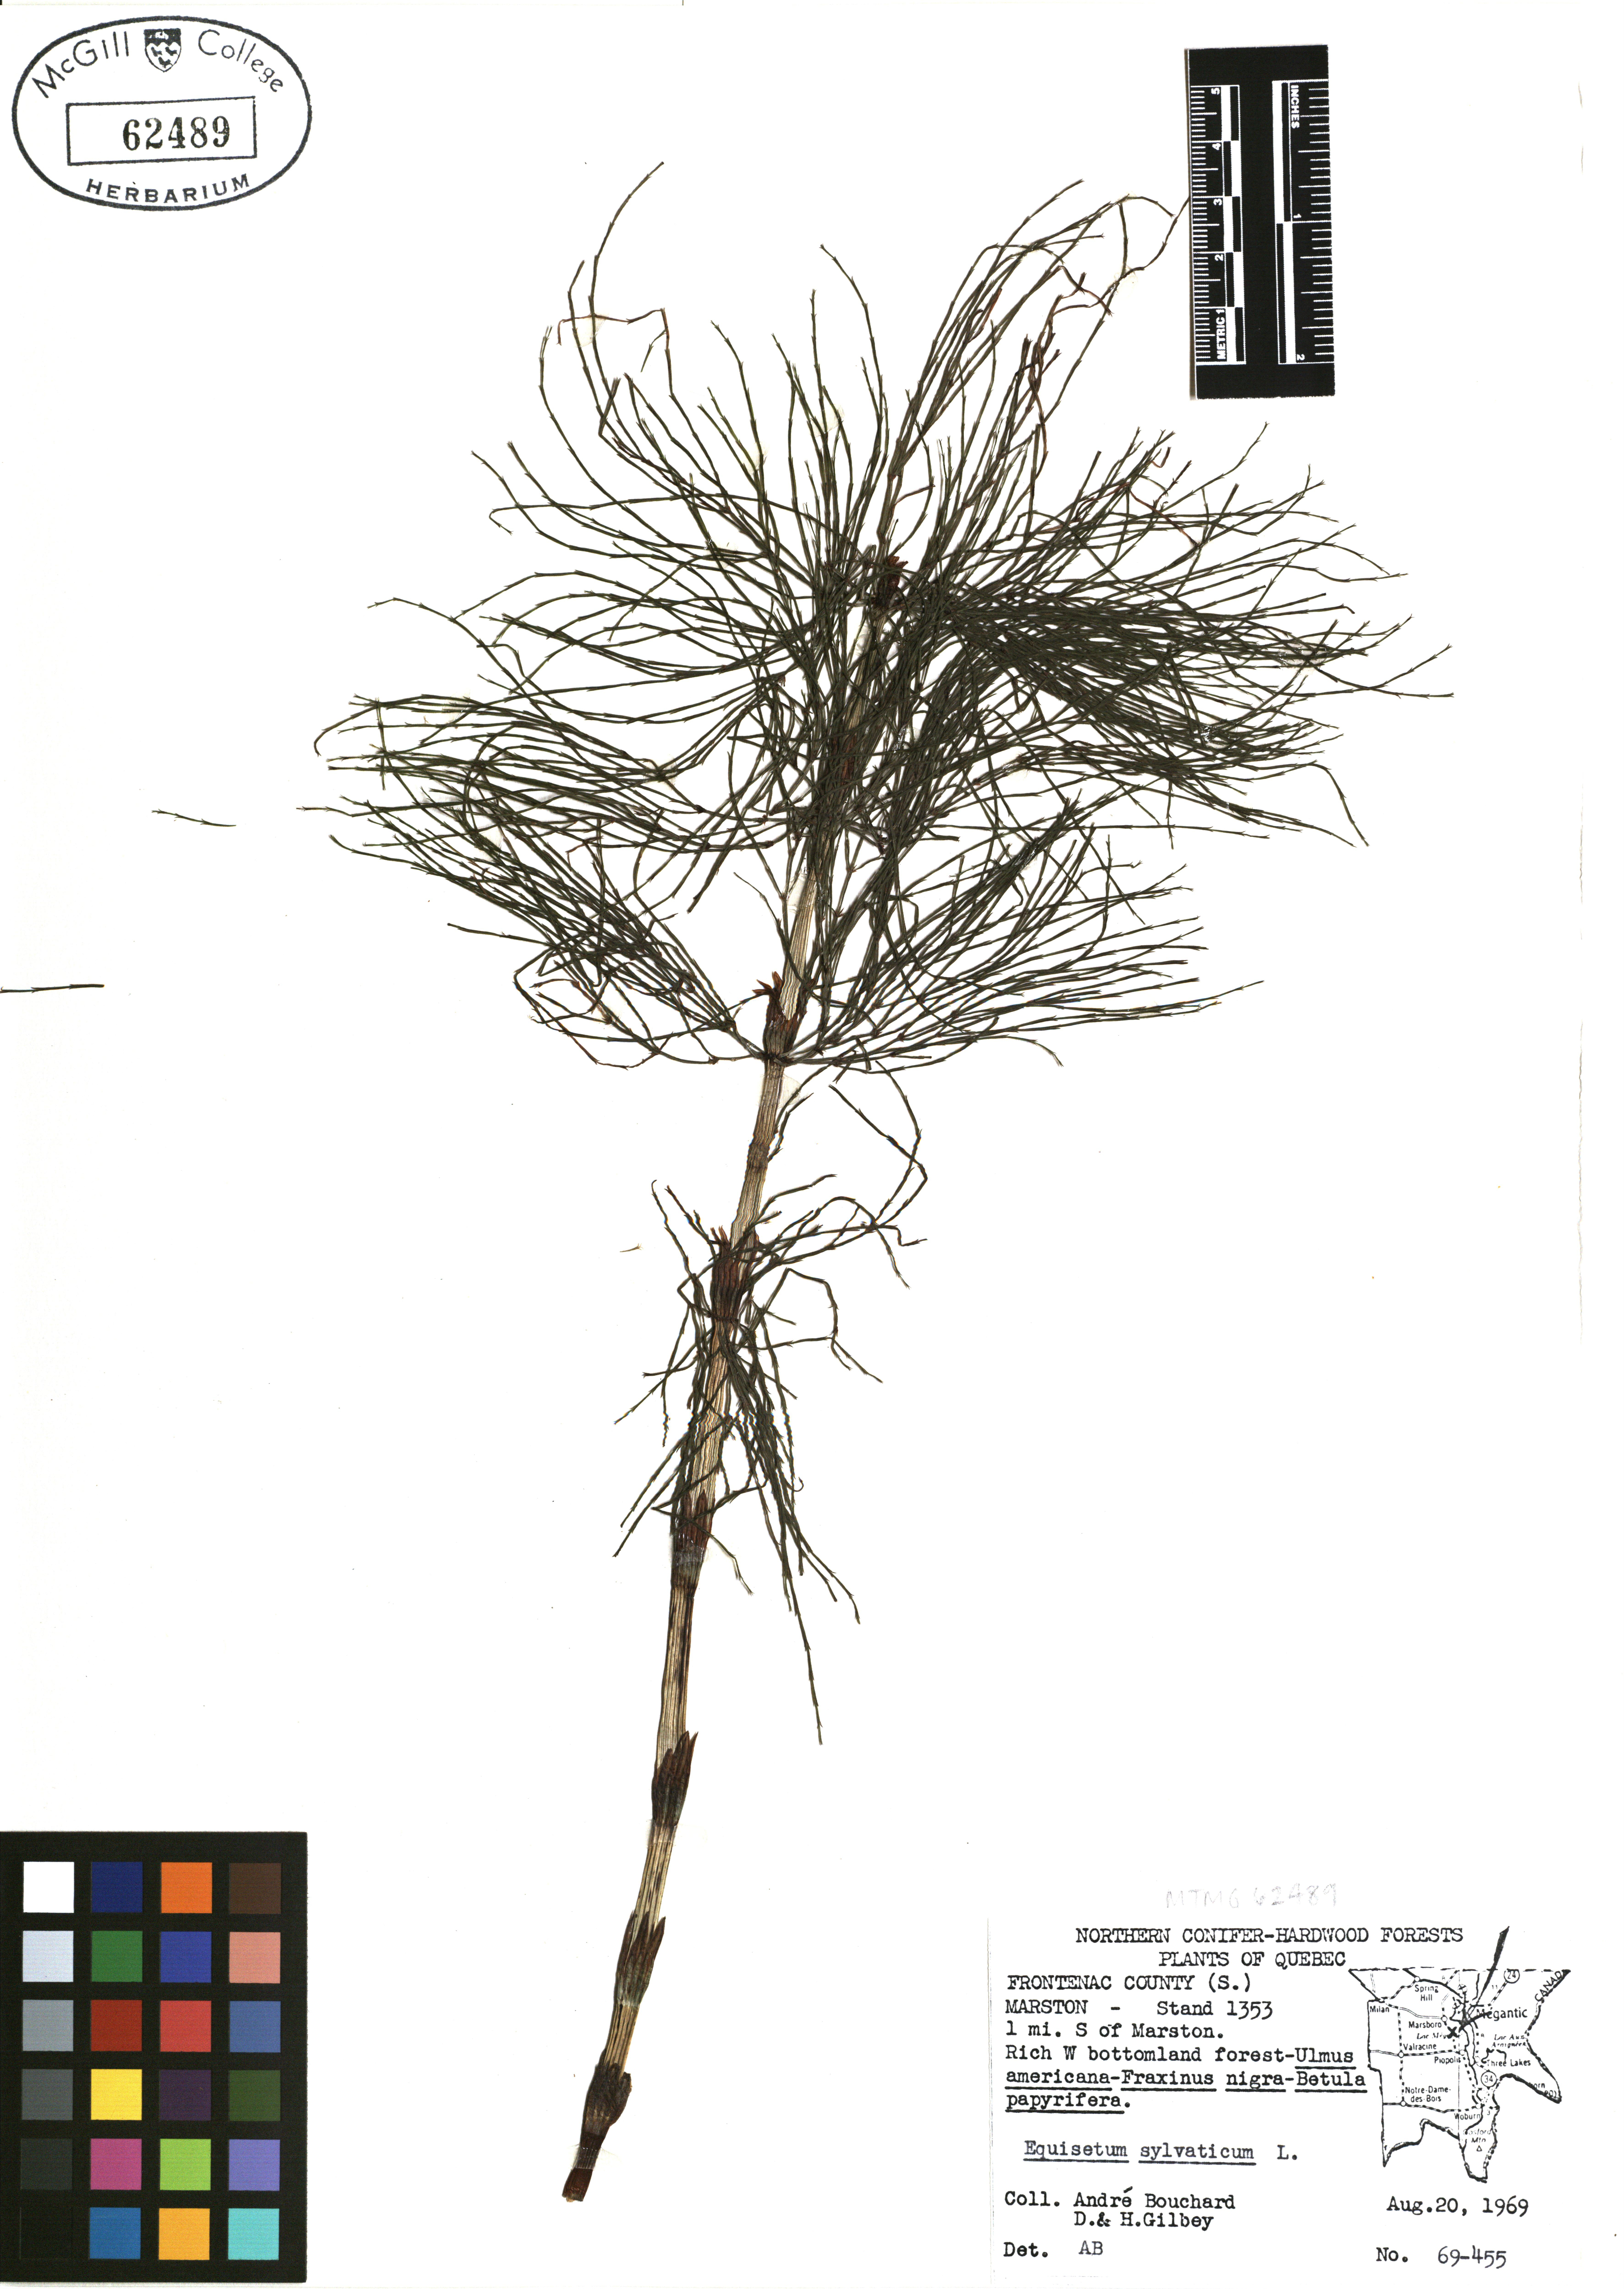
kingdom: Plantae
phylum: Tracheophyta
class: Polypodiopsida
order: Equisetales
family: Equisetaceae
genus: Equisetum
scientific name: Equisetum sylvaticum
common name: Wood horsetail
